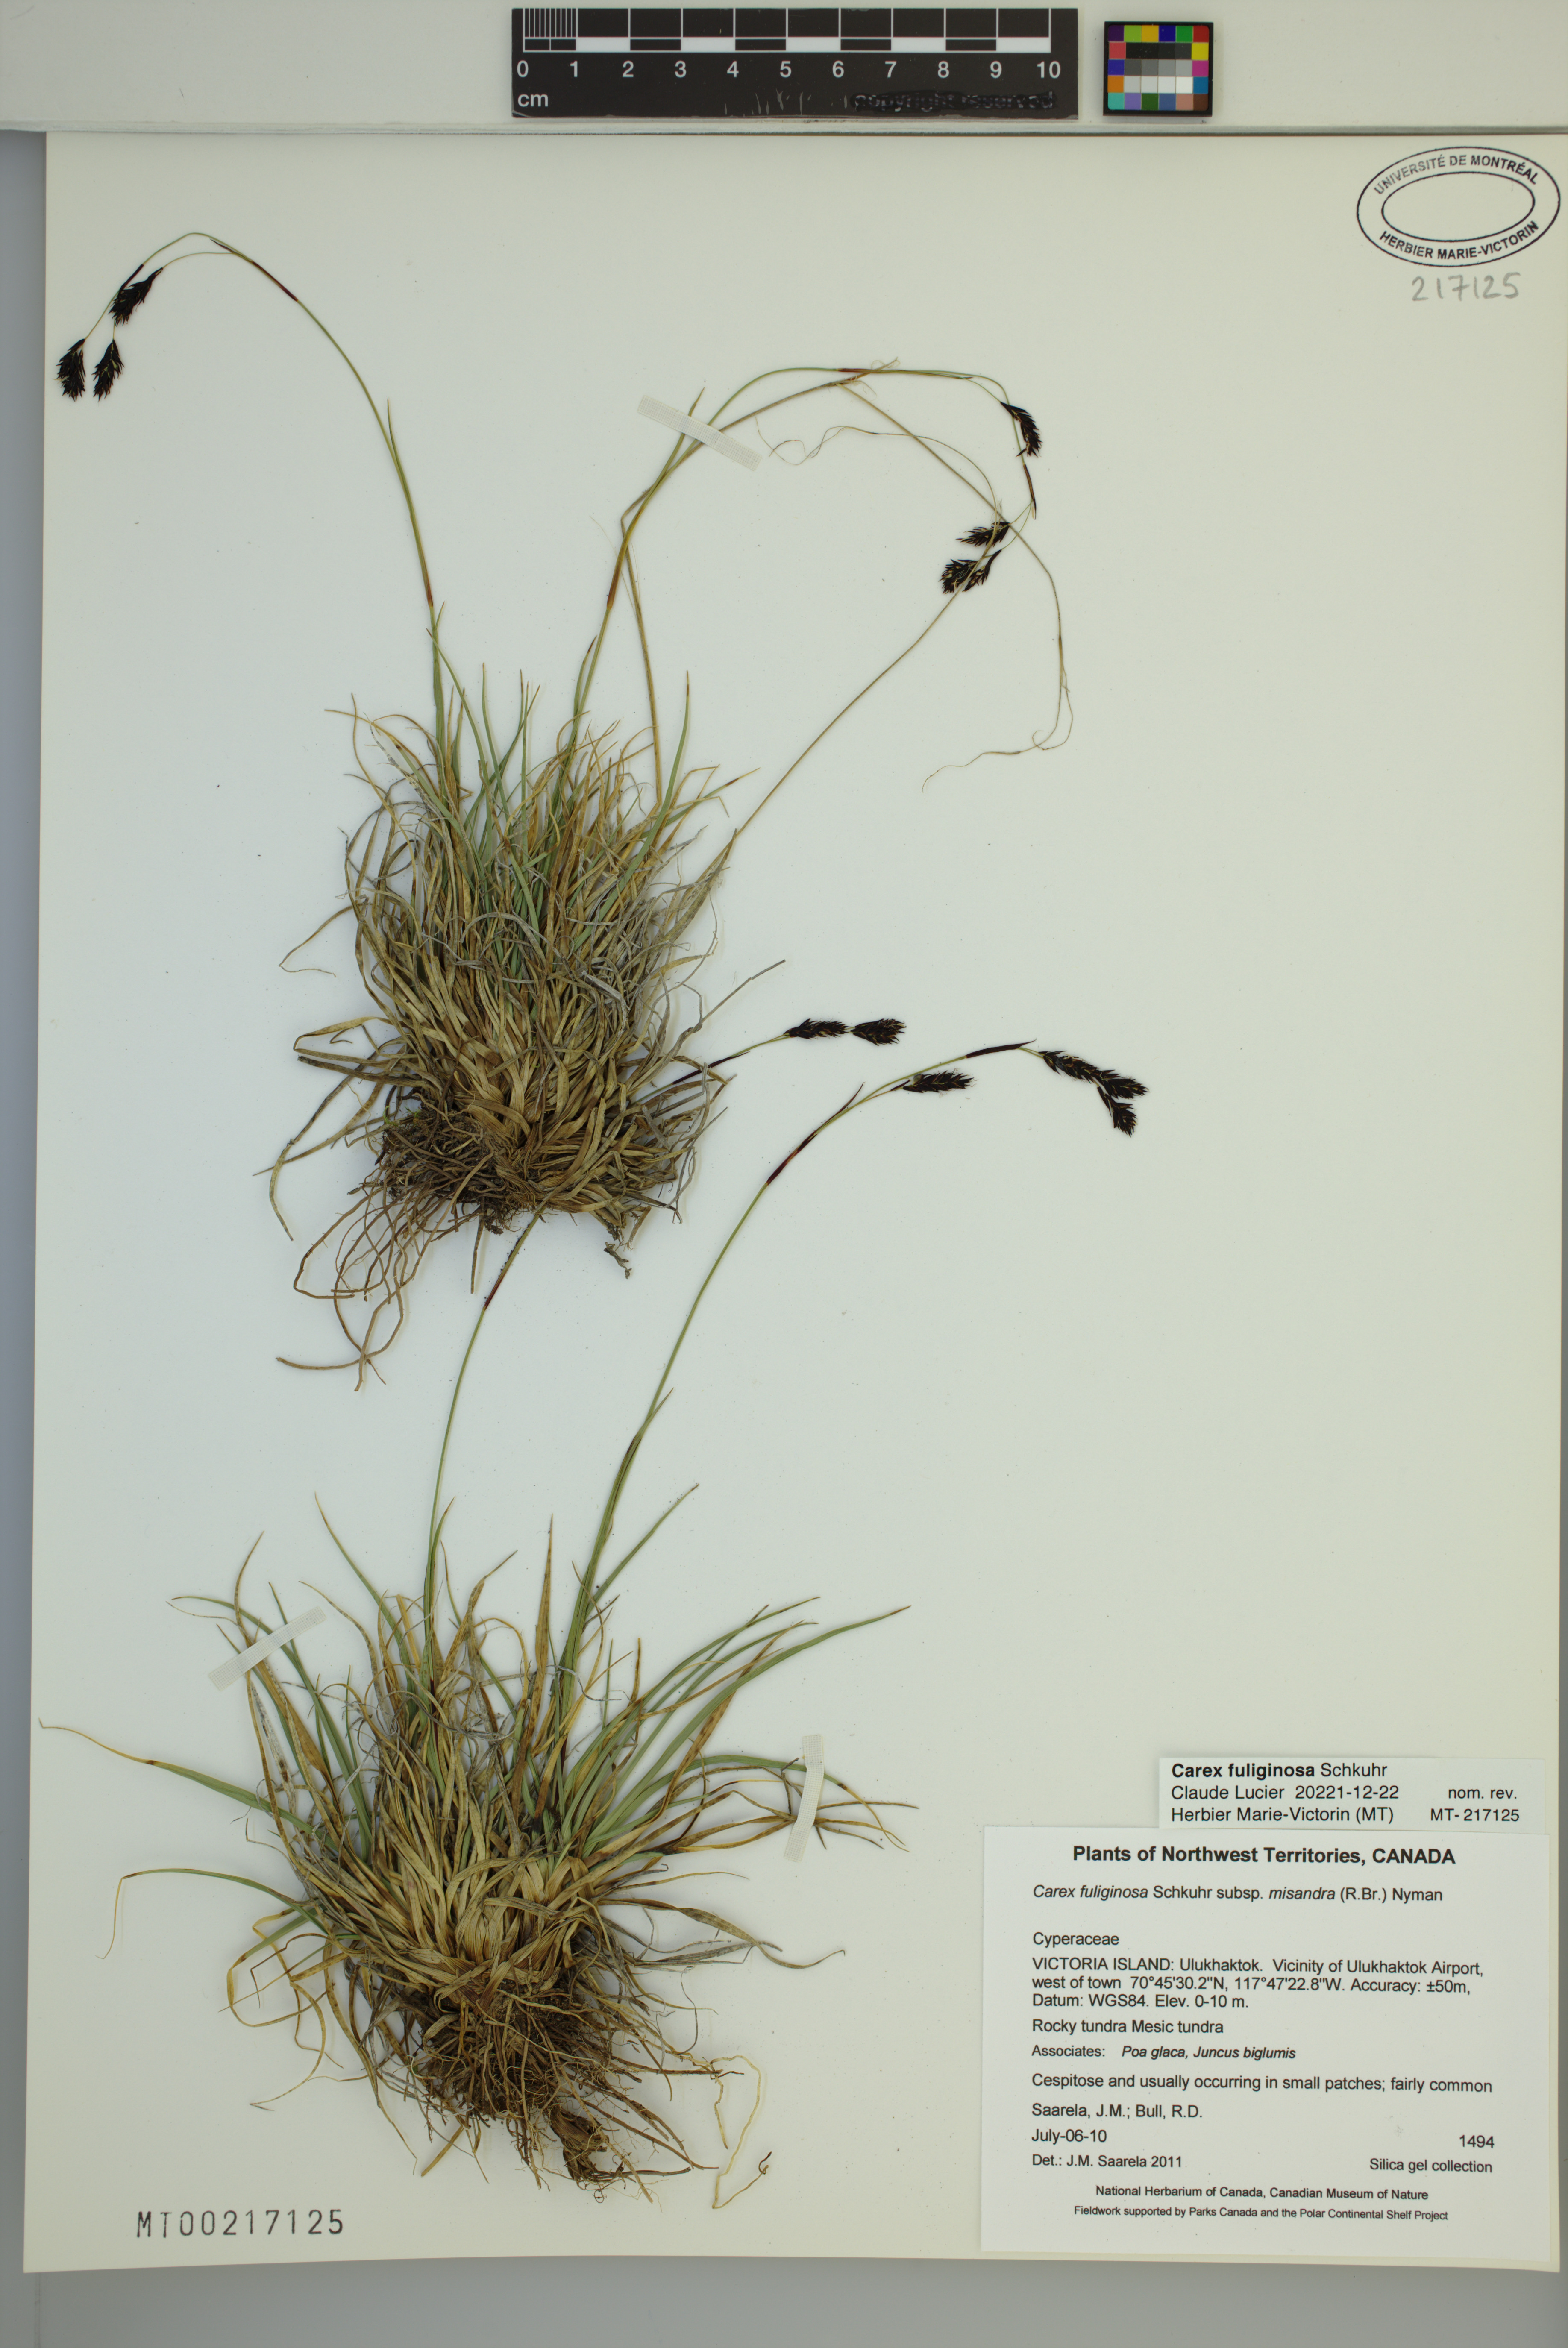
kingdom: Plantae
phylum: Tracheophyta
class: Liliopsida
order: Poales
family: Cyperaceae
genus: Carex
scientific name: Carex fuliginosa
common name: Few-flowered sedge
